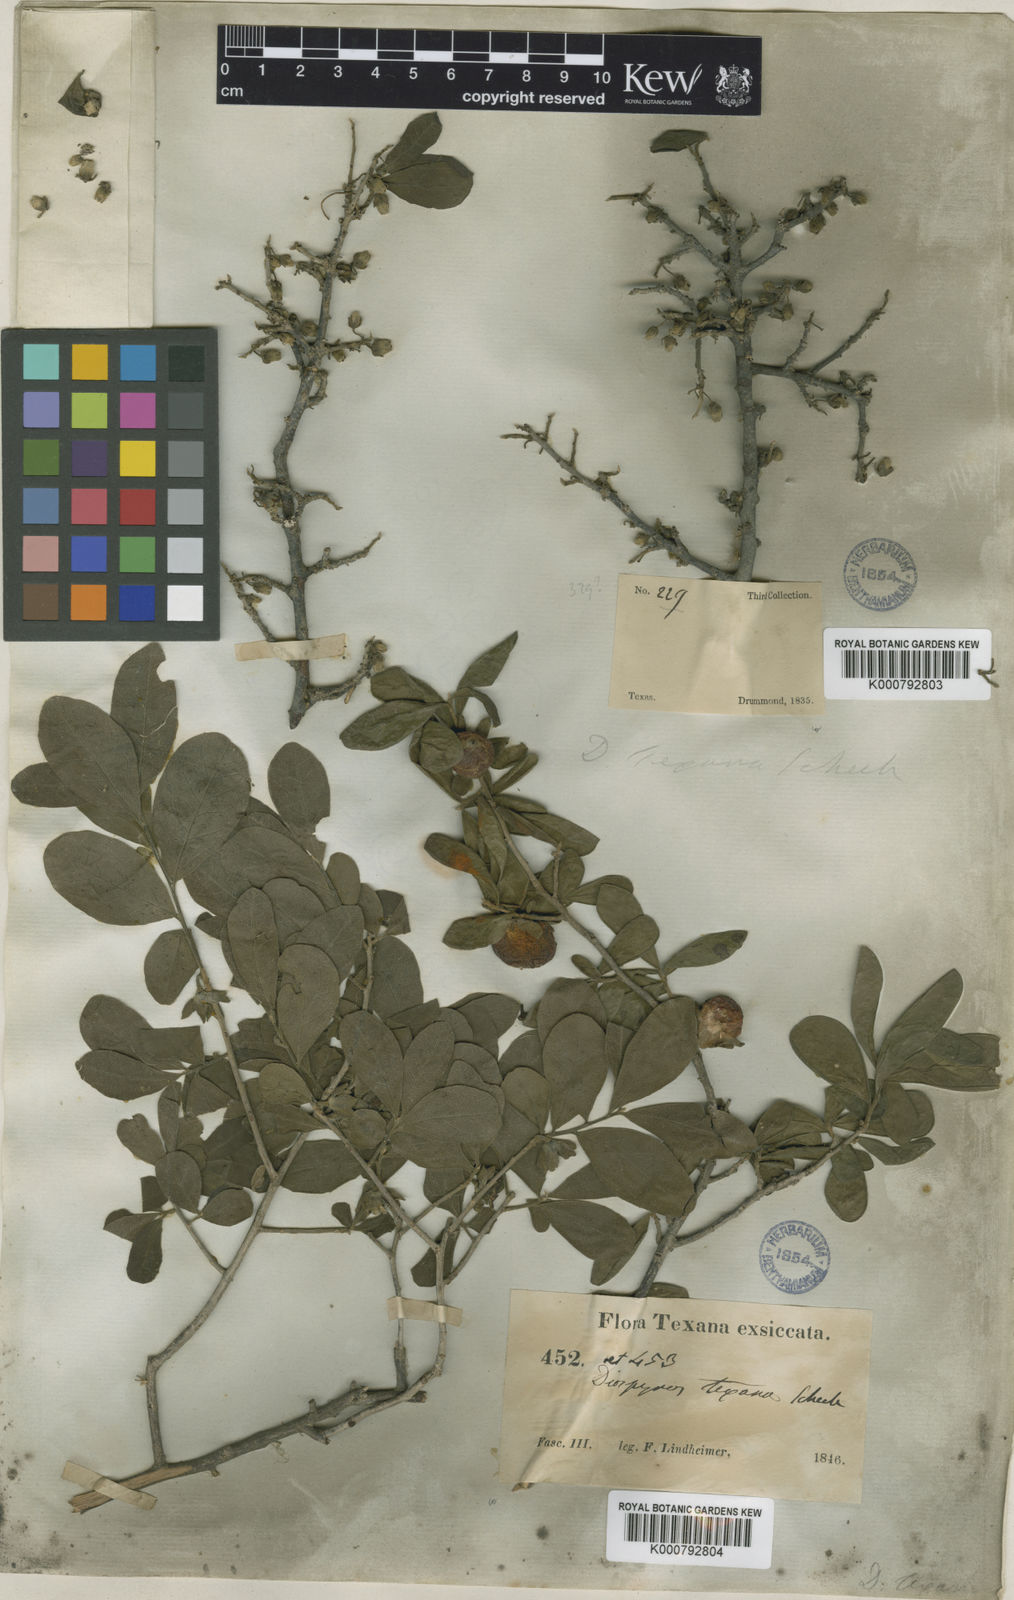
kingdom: Plantae
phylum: Tracheophyta
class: Magnoliopsida
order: Ericales
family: Ebenaceae
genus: Diospyros
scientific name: Diospyros texana
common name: Texas persimmon
